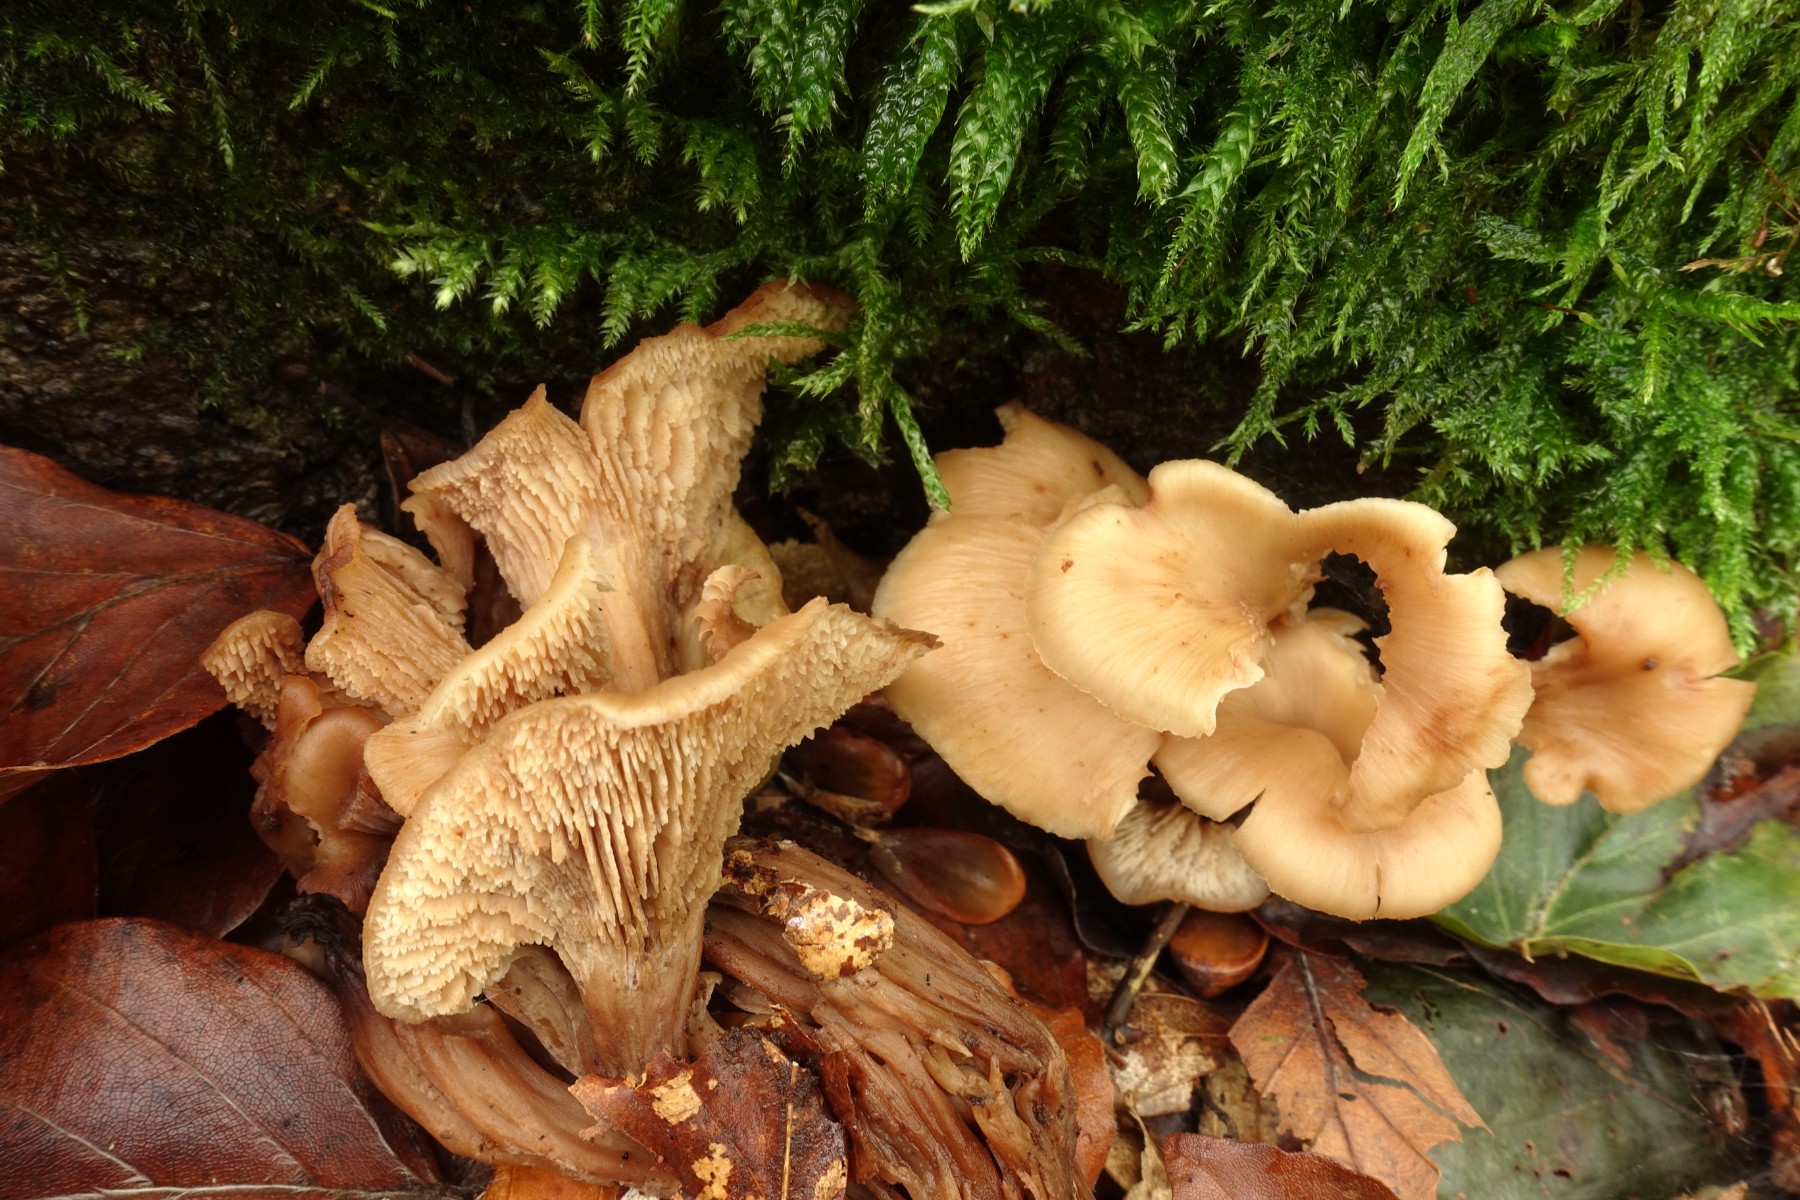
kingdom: Fungi
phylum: Basidiomycota
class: Agaricomycetes
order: Russulales
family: Auriscalpiaceae
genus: Lentinellus
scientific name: Lentinellus cochleatus
